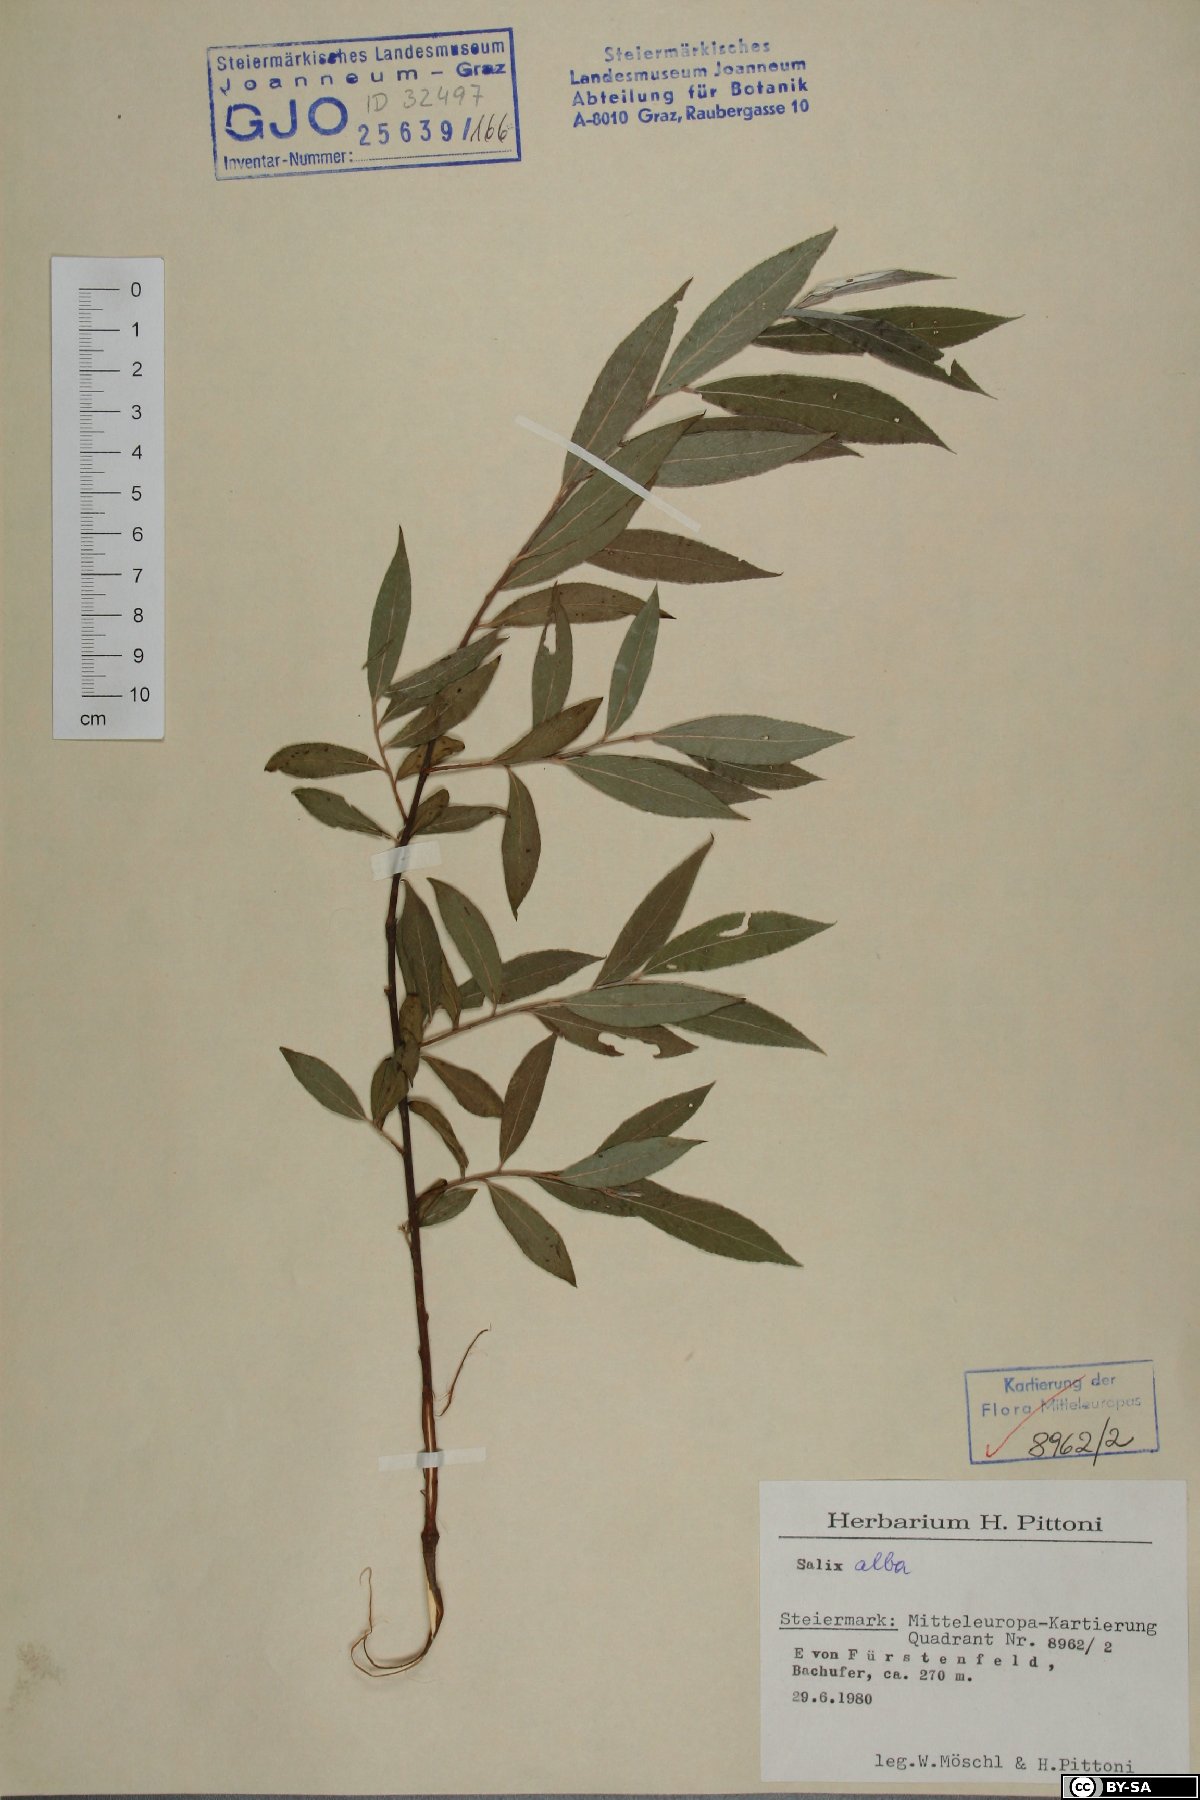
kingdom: Plantae
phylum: Tracheophyta
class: Magnoliopsida
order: Malpighiales
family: Salicaceae
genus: Salix
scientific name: Salix alba
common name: White willow
